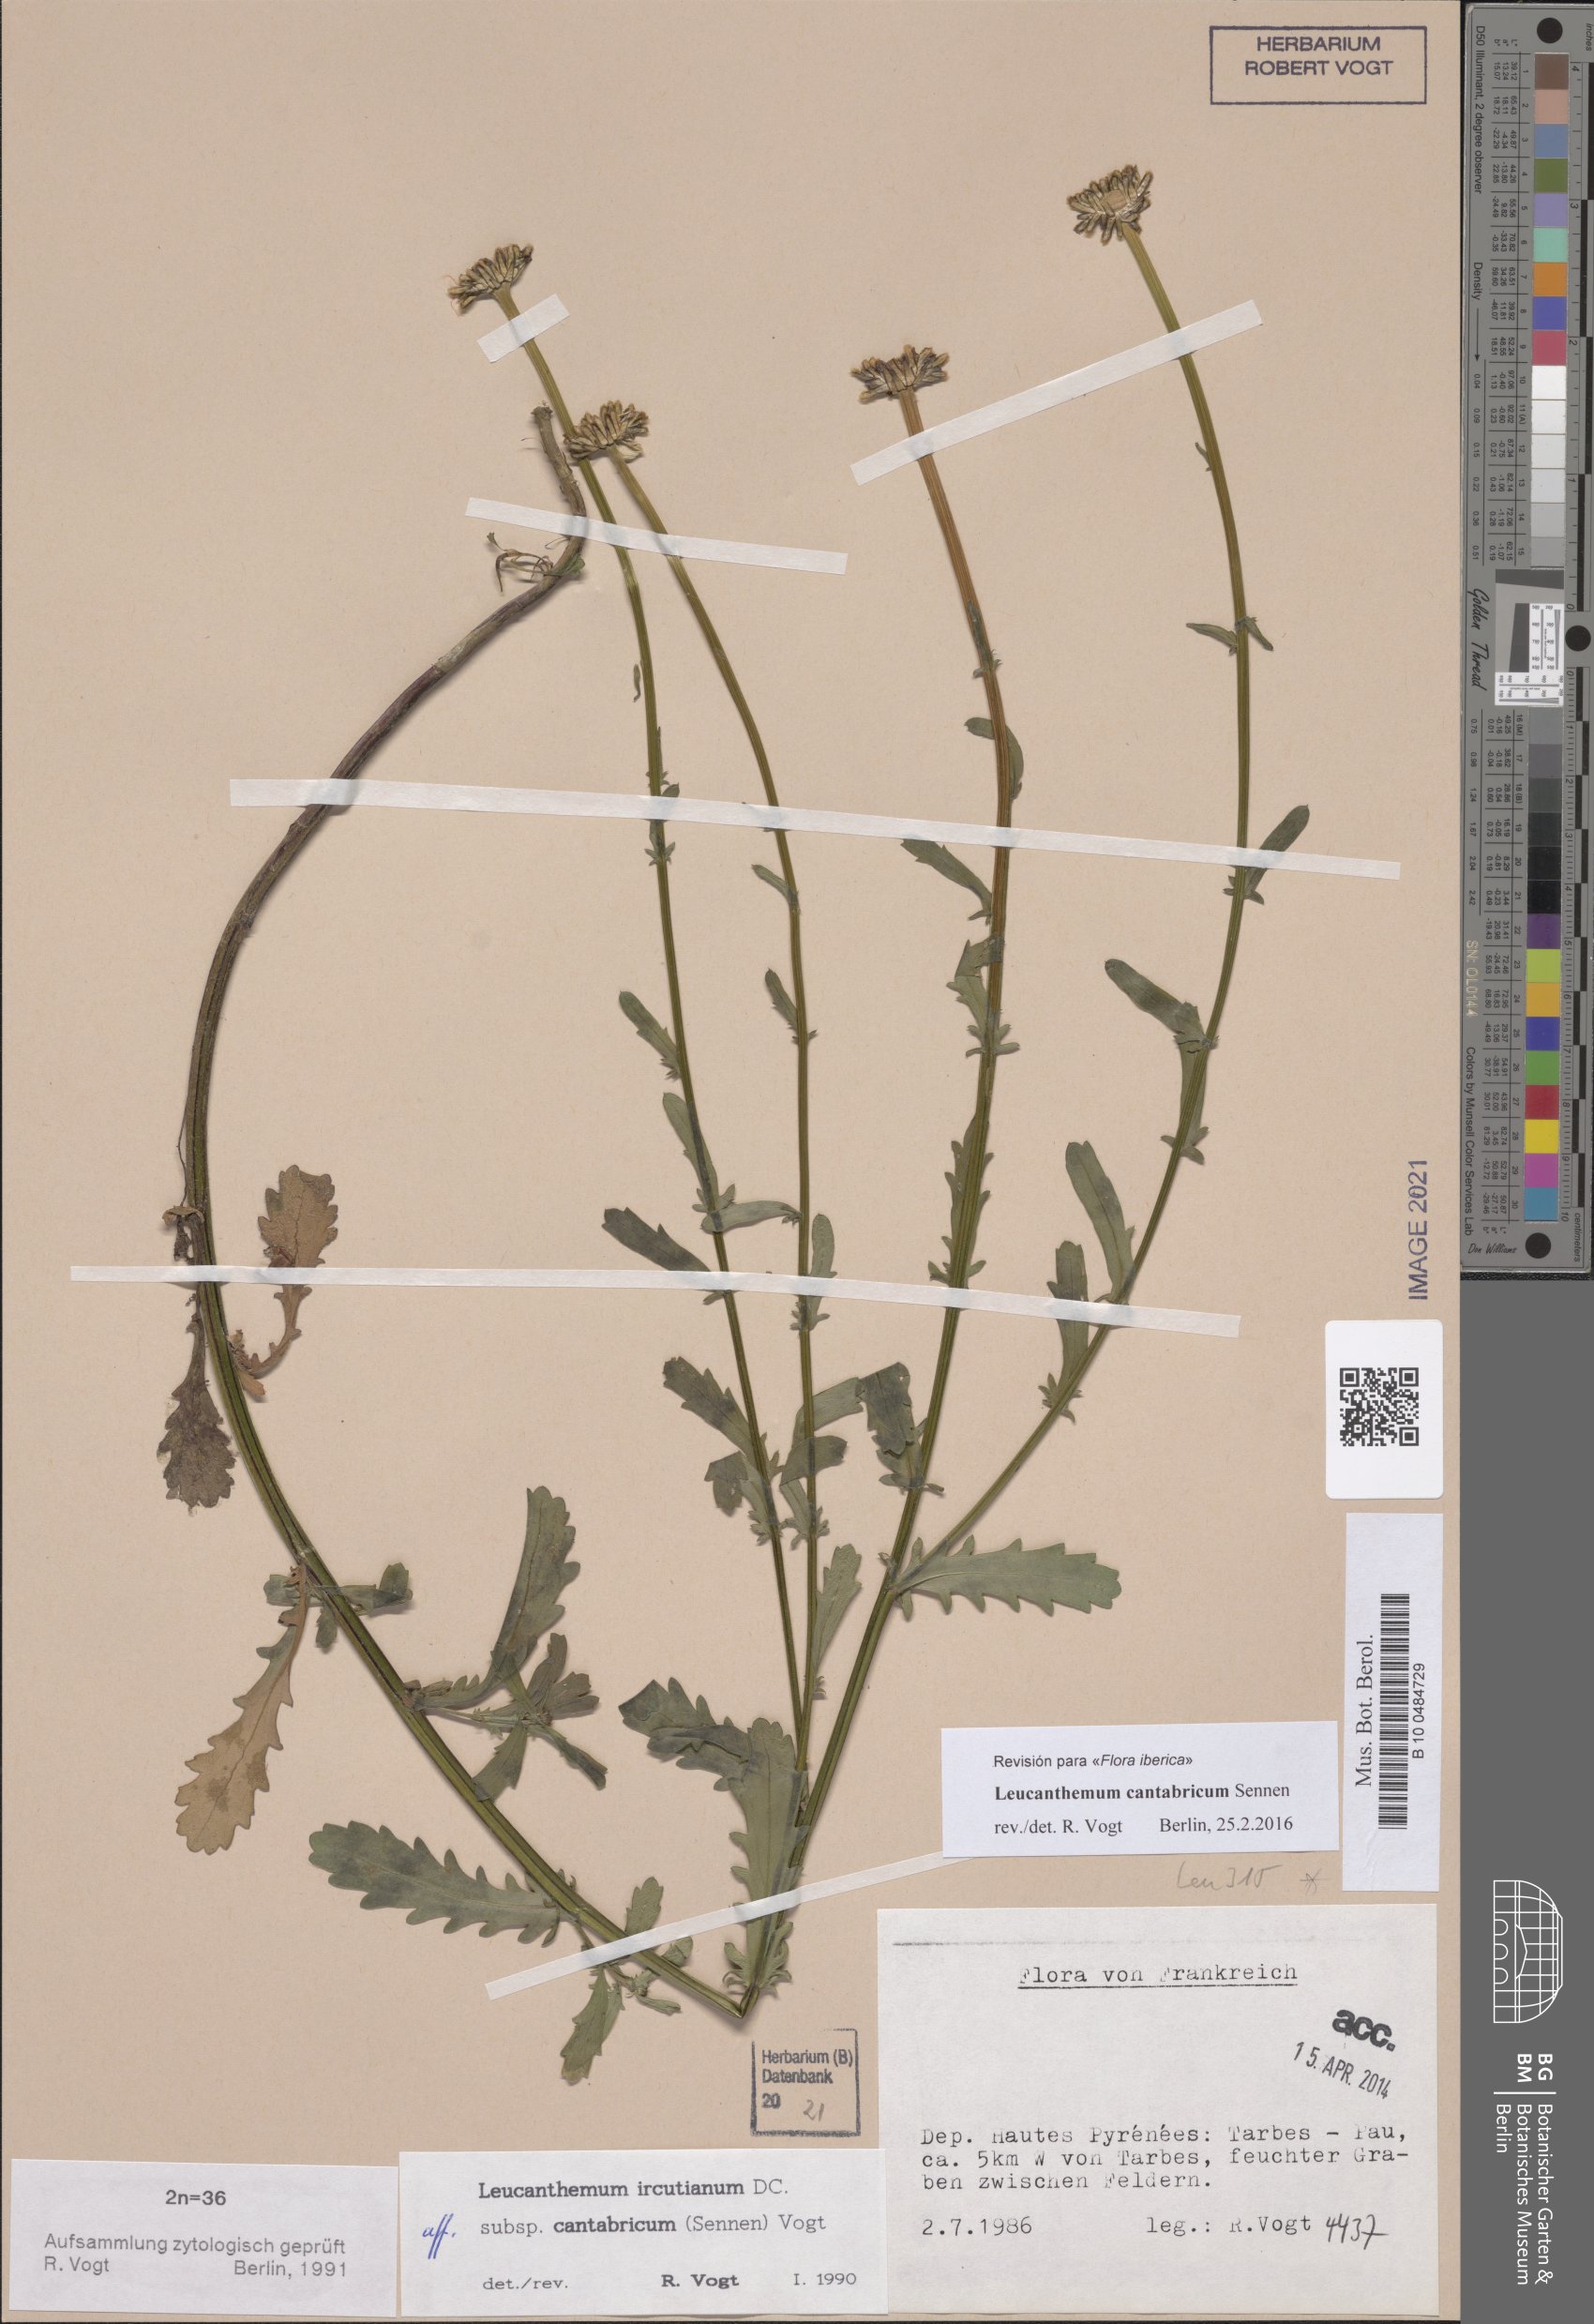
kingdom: Plantae
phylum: Tracheophyta
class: Magnoliopsida
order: Asterales
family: Asteraceae
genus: Leucanthemum
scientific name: Leucanthemum cantabricum
